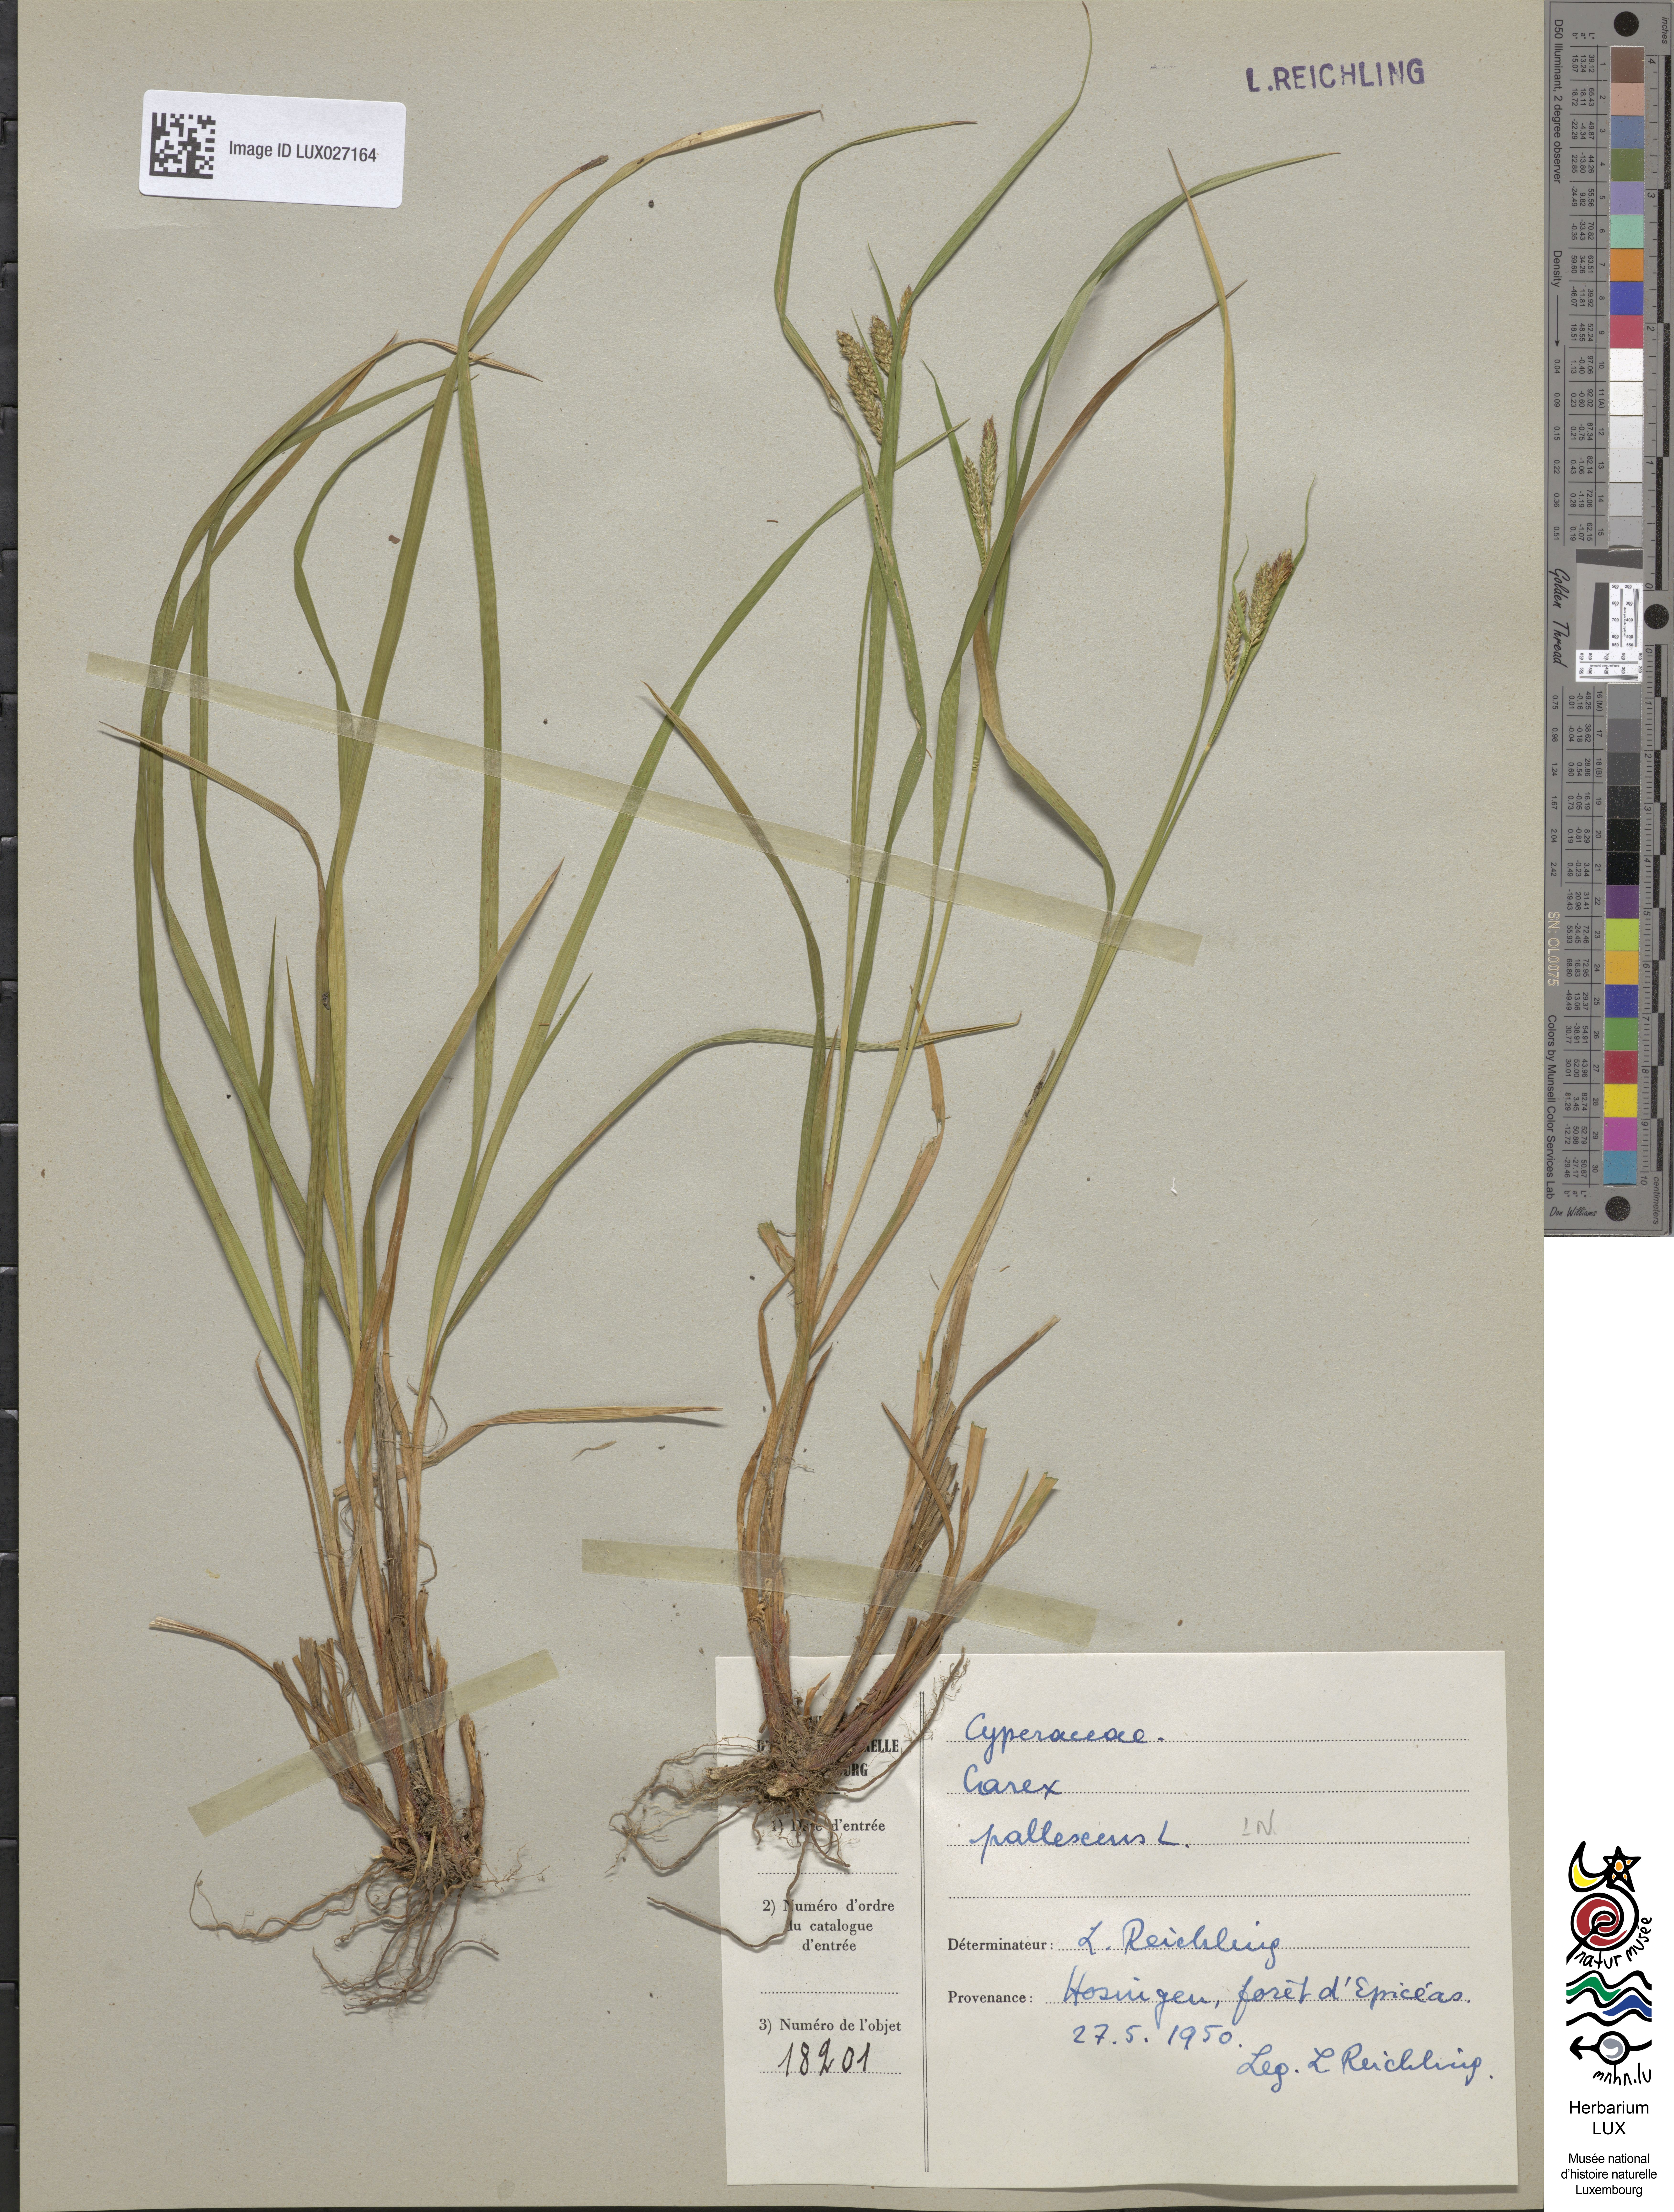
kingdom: Plantae
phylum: Tracheophyta
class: Liliopsida
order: Poales
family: Cyperaceae
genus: Carex
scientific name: Carex pallescens
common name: Pale sedge
